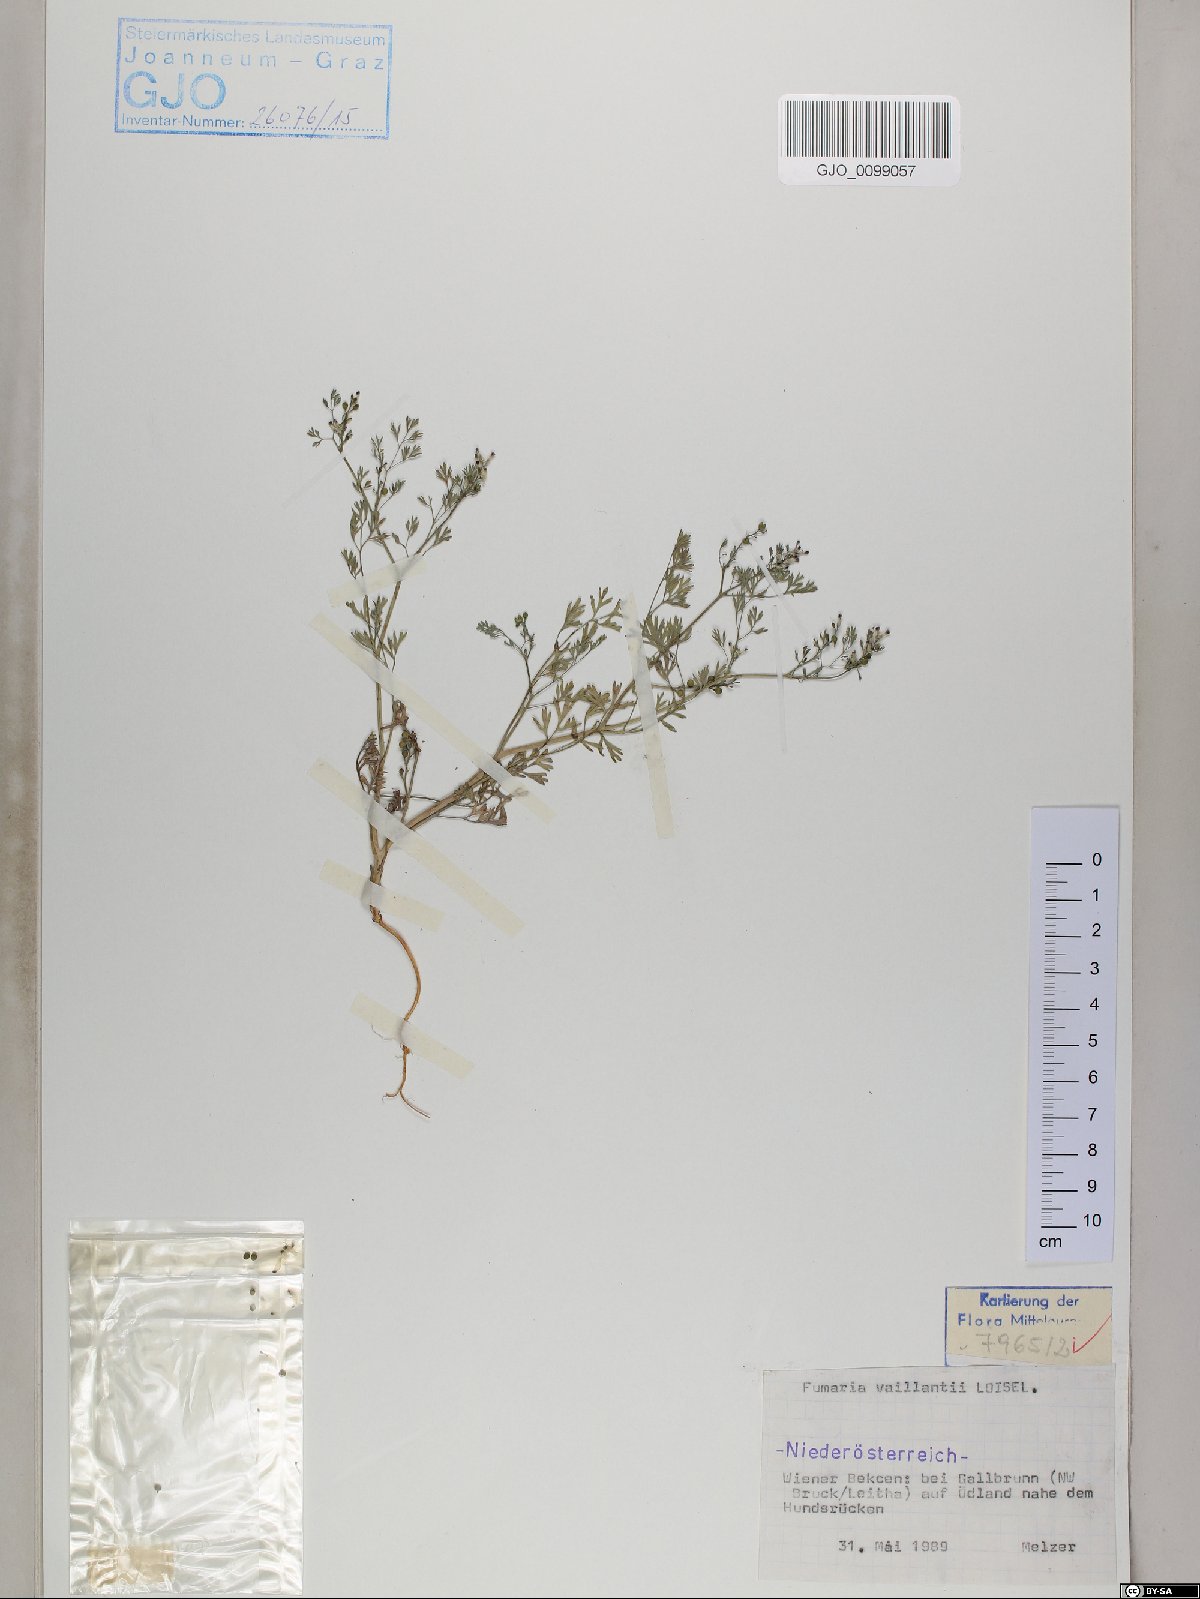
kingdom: Plantae
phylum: Tracheophyta
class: Magnoliopsida
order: Ranunculales
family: Papaveraceae
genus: Fumaria
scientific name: Fumaria vaillantii
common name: Few-flowered fumitory
